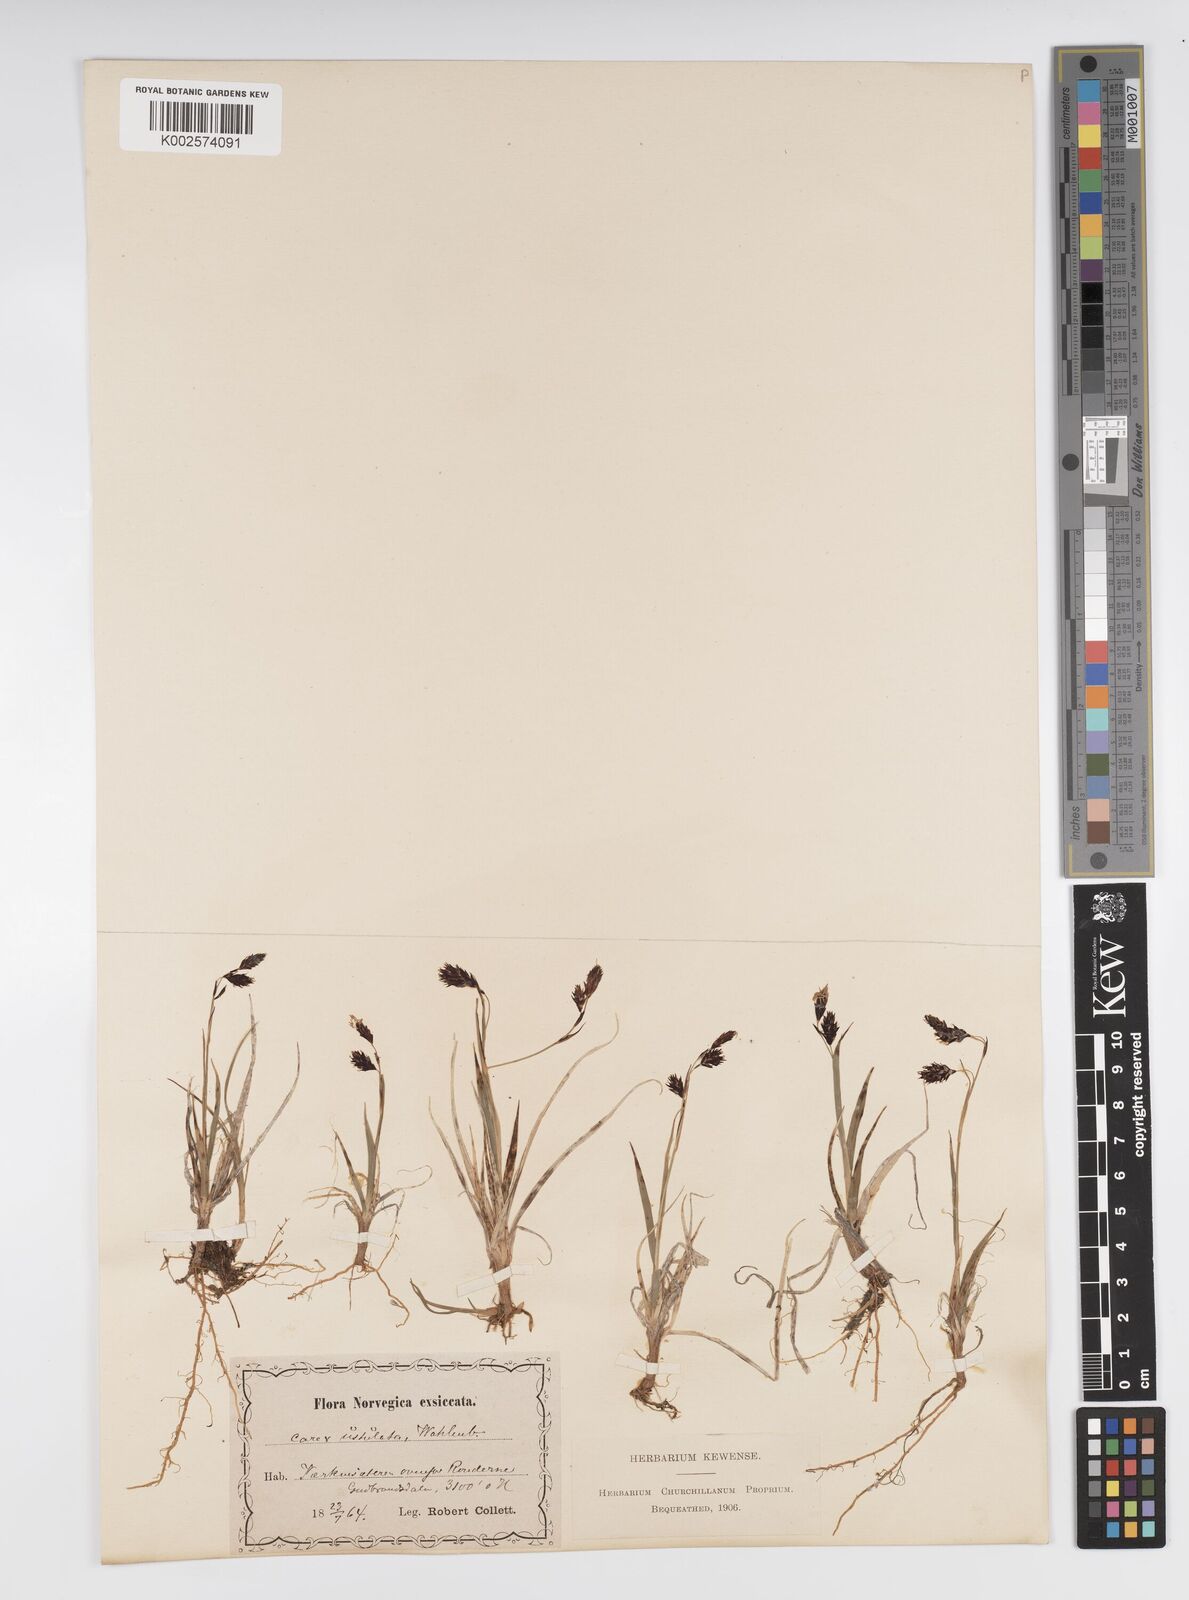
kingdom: Plantae
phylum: Tracheophyta
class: Liliopsida
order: Poales
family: Cyperaceae
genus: Carex
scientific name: Carex atrofusca
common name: Scorched alpine-sedge
